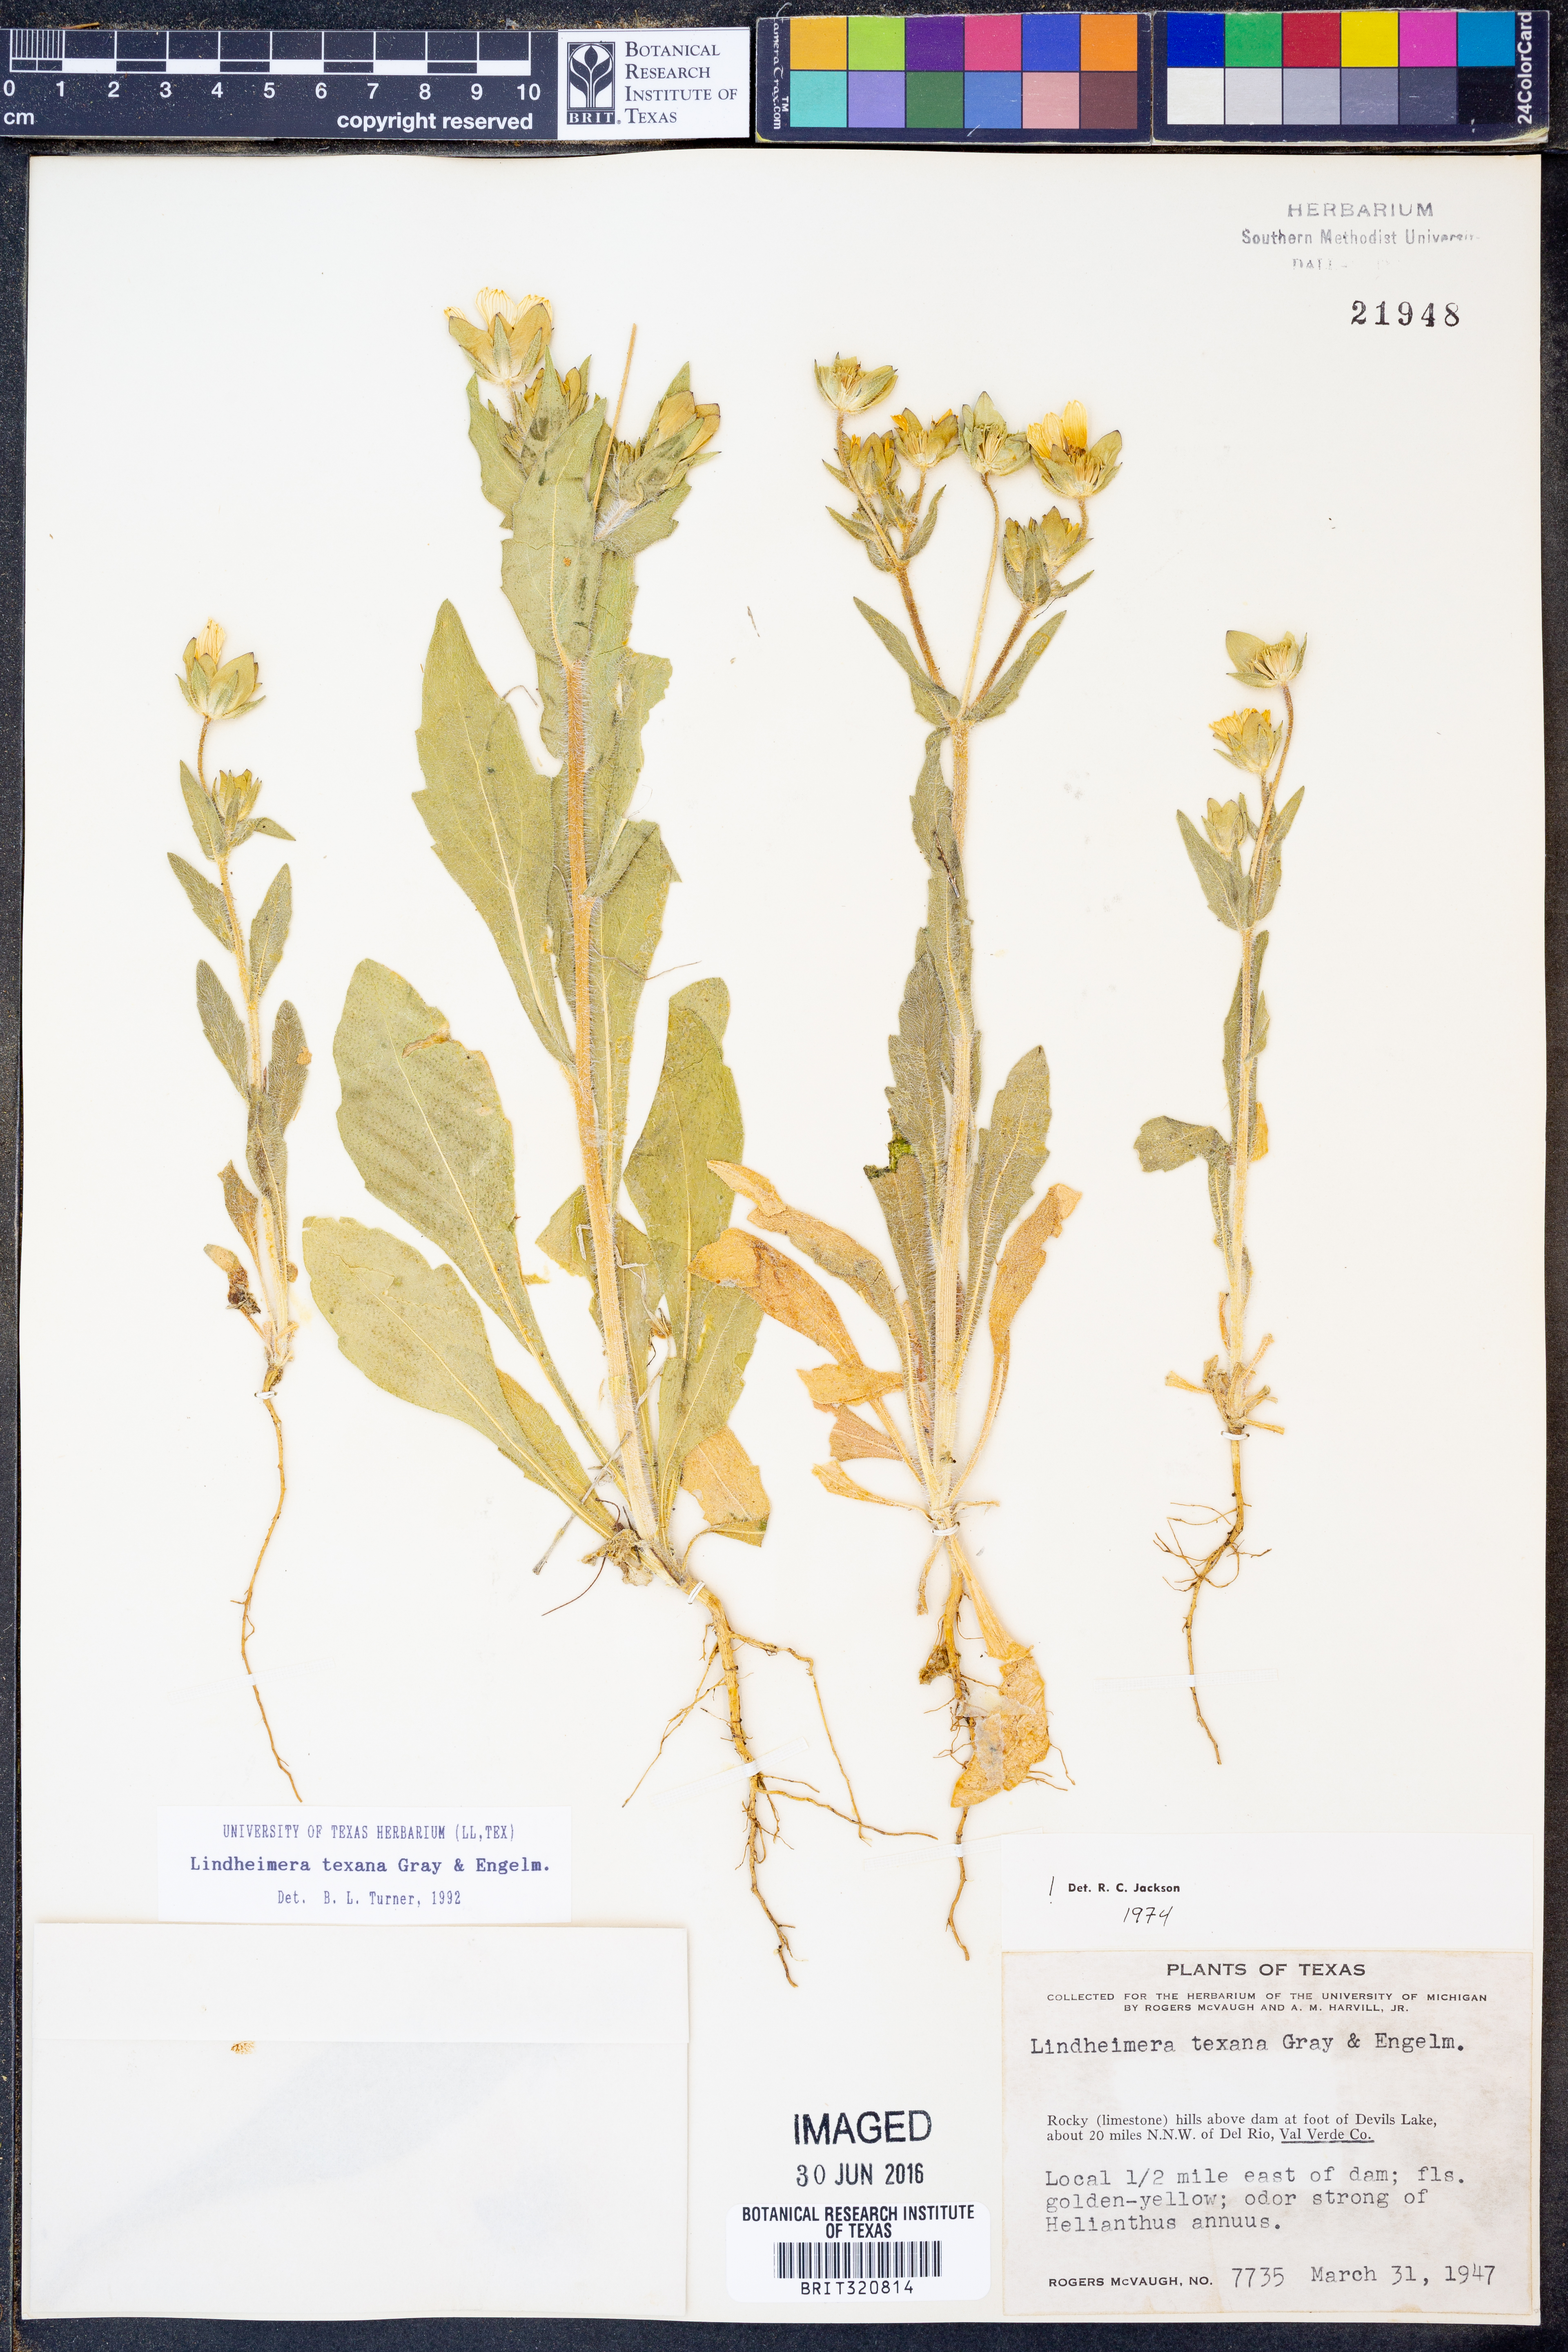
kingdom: Plantae
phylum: Tracheophyta
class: Magnoliopsida
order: Asterales
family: Asteraceae
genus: Lindheimera
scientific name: Lindheimera texana
